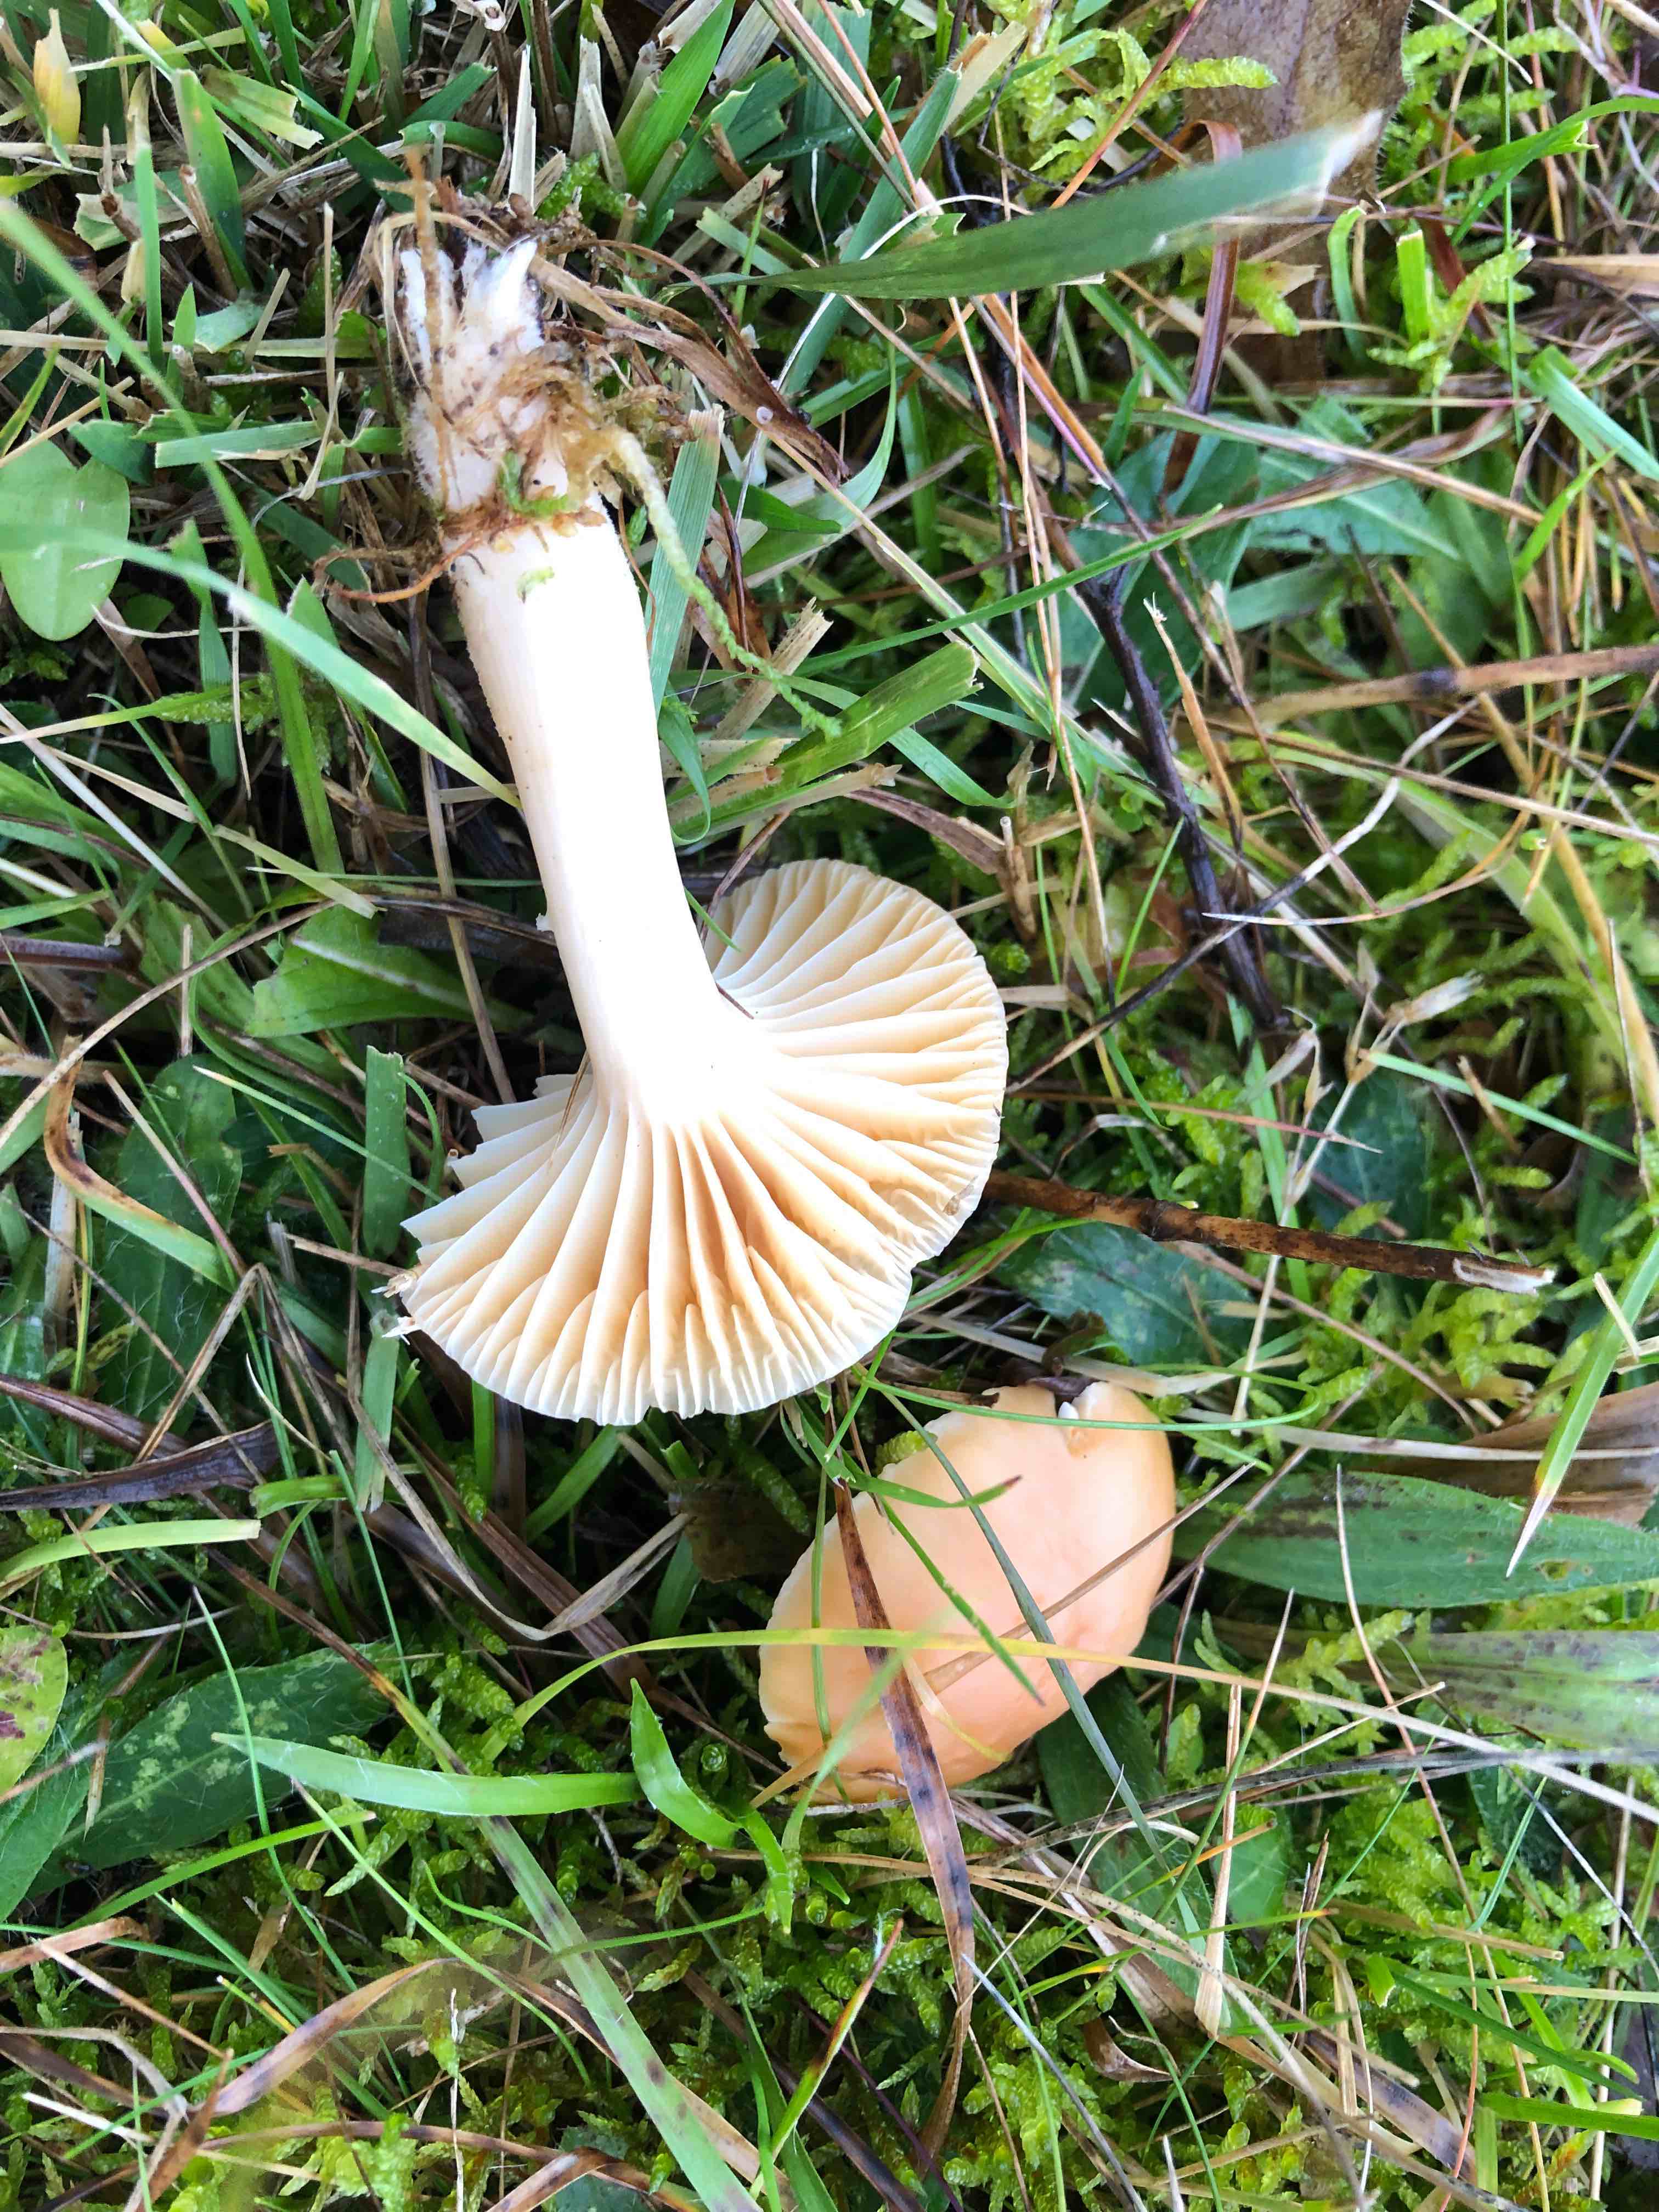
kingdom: Fungi
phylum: Basidiomycota
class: Agaricomycetes
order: Agaricales
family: Hygrophoraceae
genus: Cuphophyllus
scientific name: Cuphophyllus pratensis
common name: eng-vokshat
